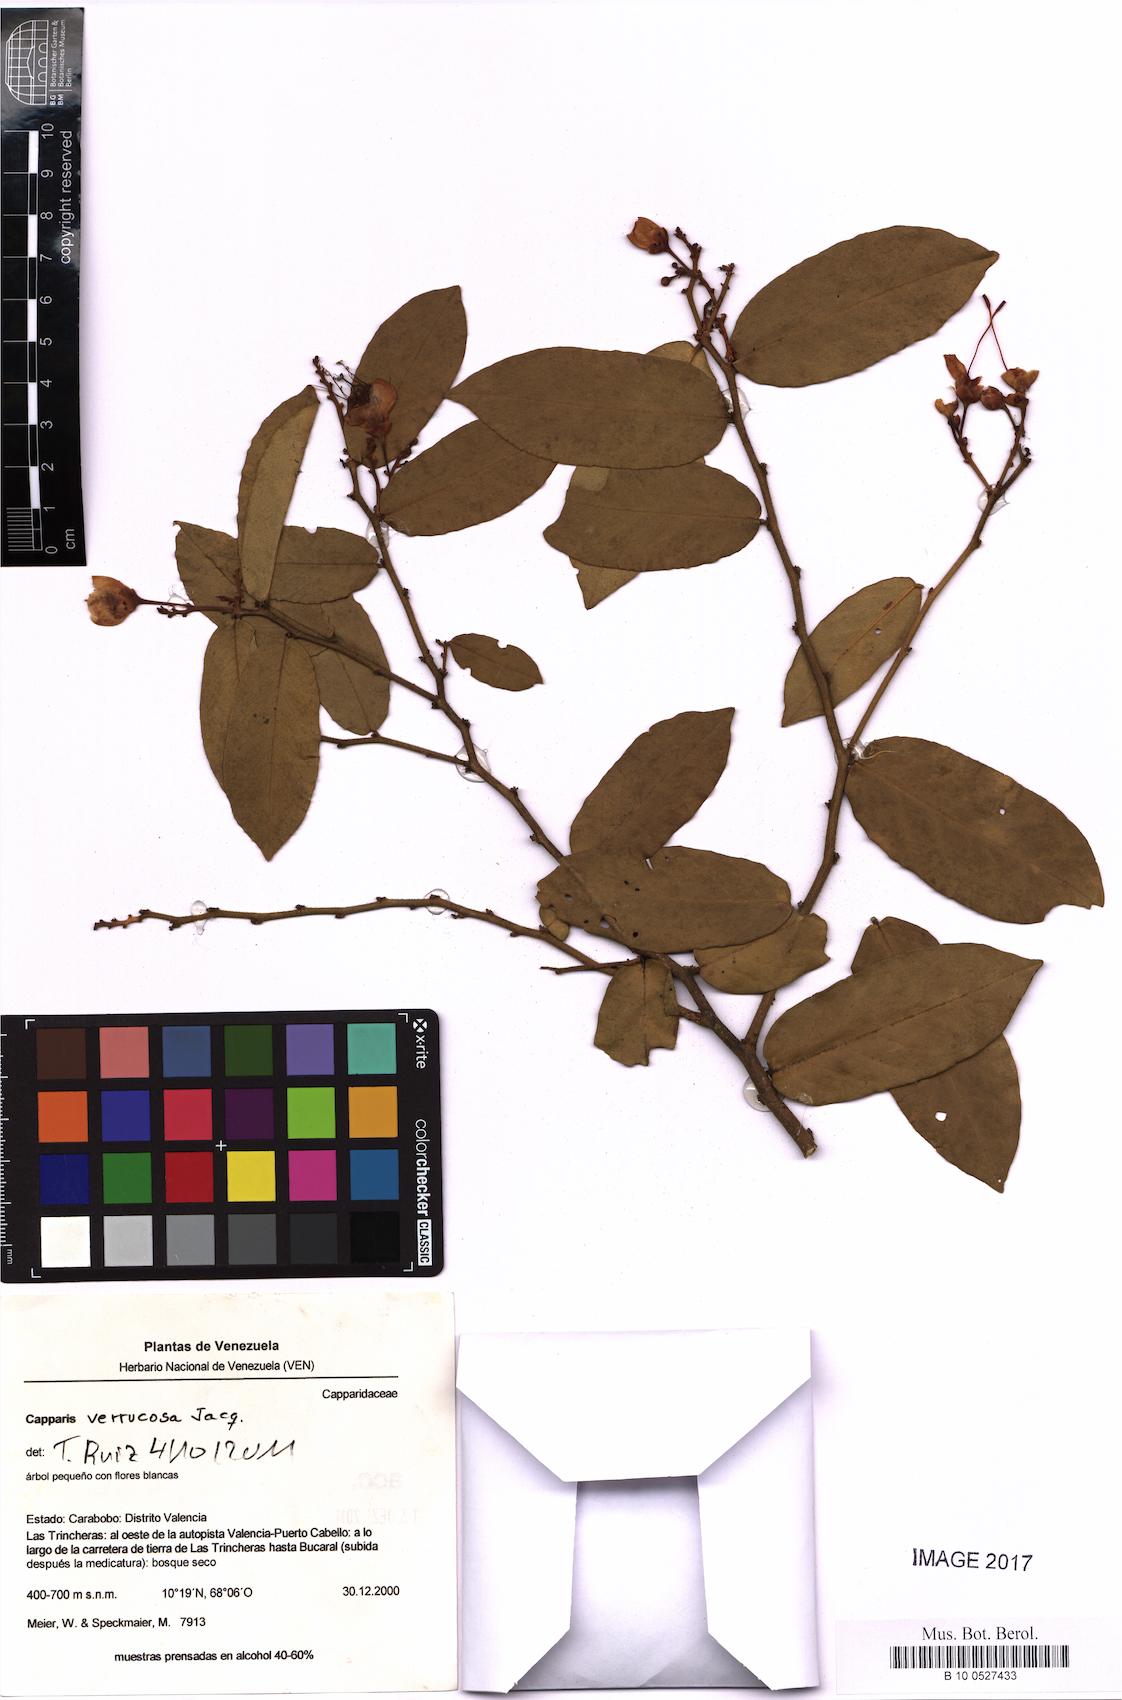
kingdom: Plantae
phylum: Tracheophyta
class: Magnoliopsida
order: Brassicales
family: Capparaceae
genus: Cynophalla
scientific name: Cynophalla verrucosa
